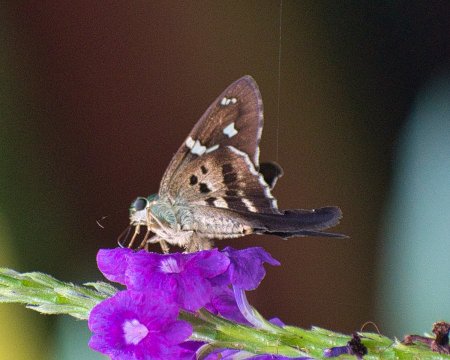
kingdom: Animalia
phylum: Arthropoda
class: Insecta
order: Lepidoptera
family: Hesperiidae
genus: Urbanus
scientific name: Urbanus esmeraldus
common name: Esmeralda Longtail
